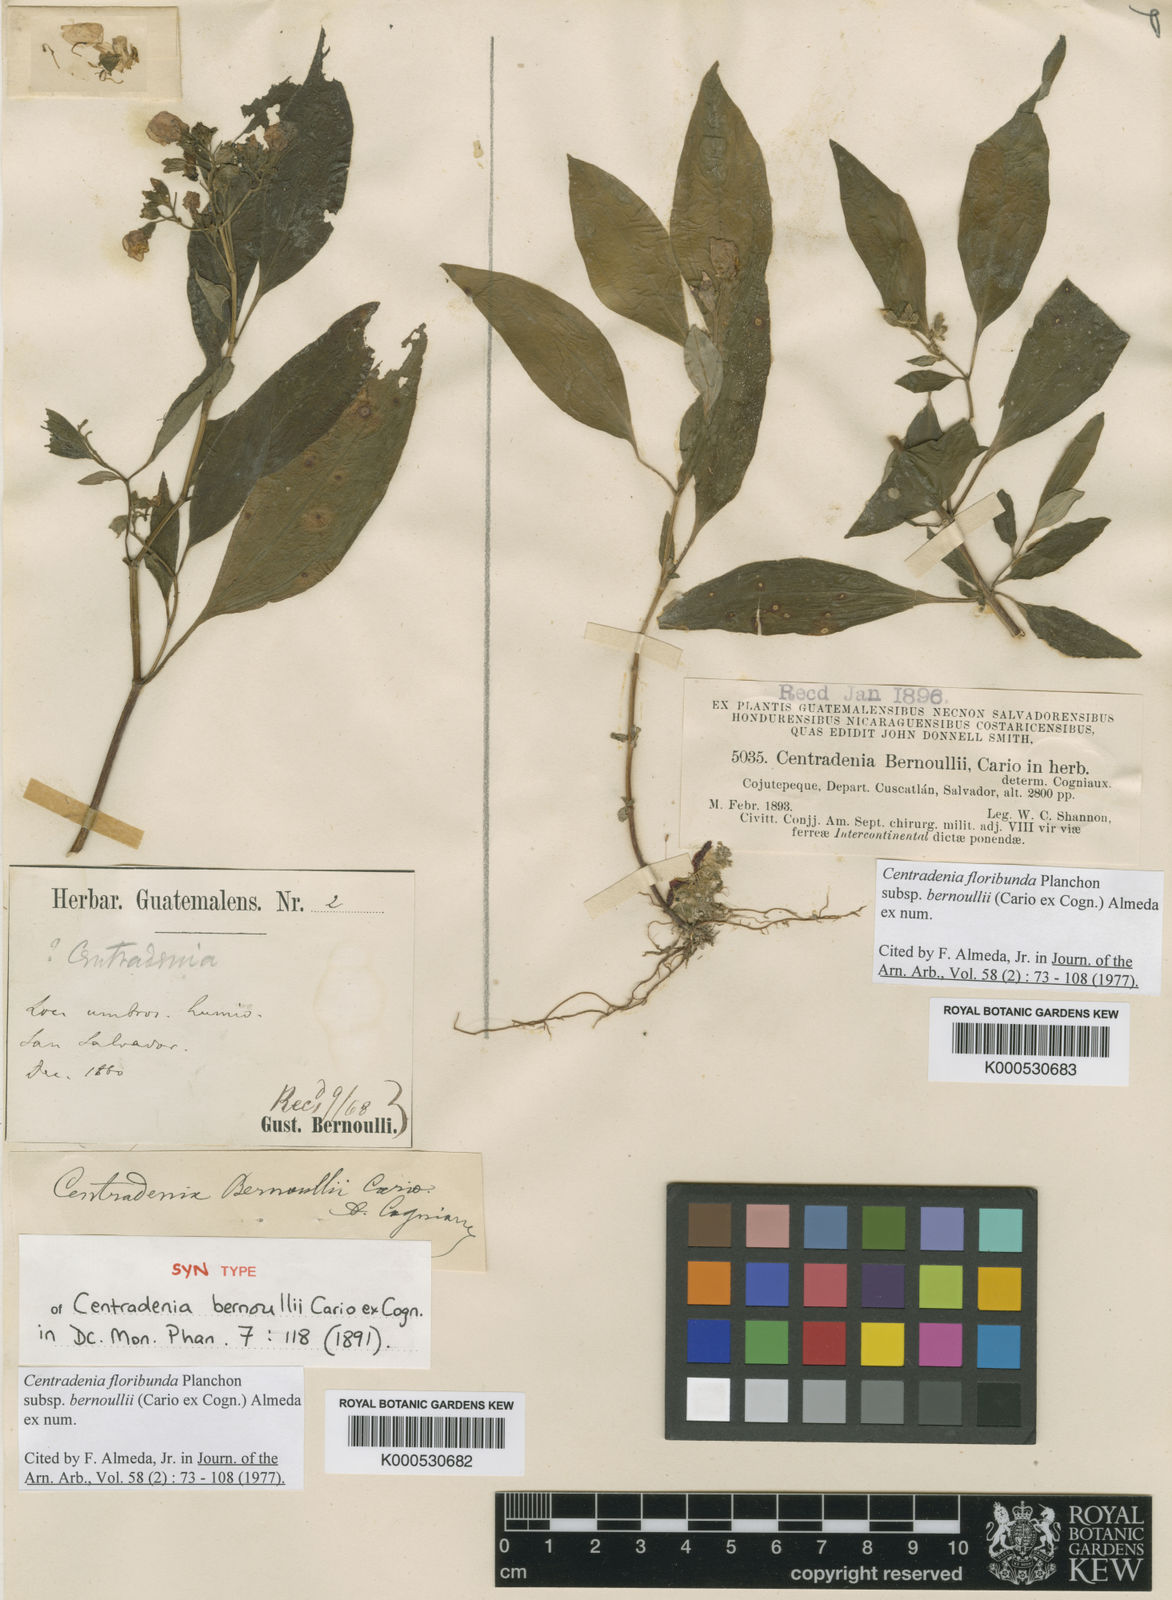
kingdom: Plantae
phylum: Tracheophyta
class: Magnoliopsida
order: Myrtales
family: Melastomataceae
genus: Centradenia
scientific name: Centradenia floribunda
